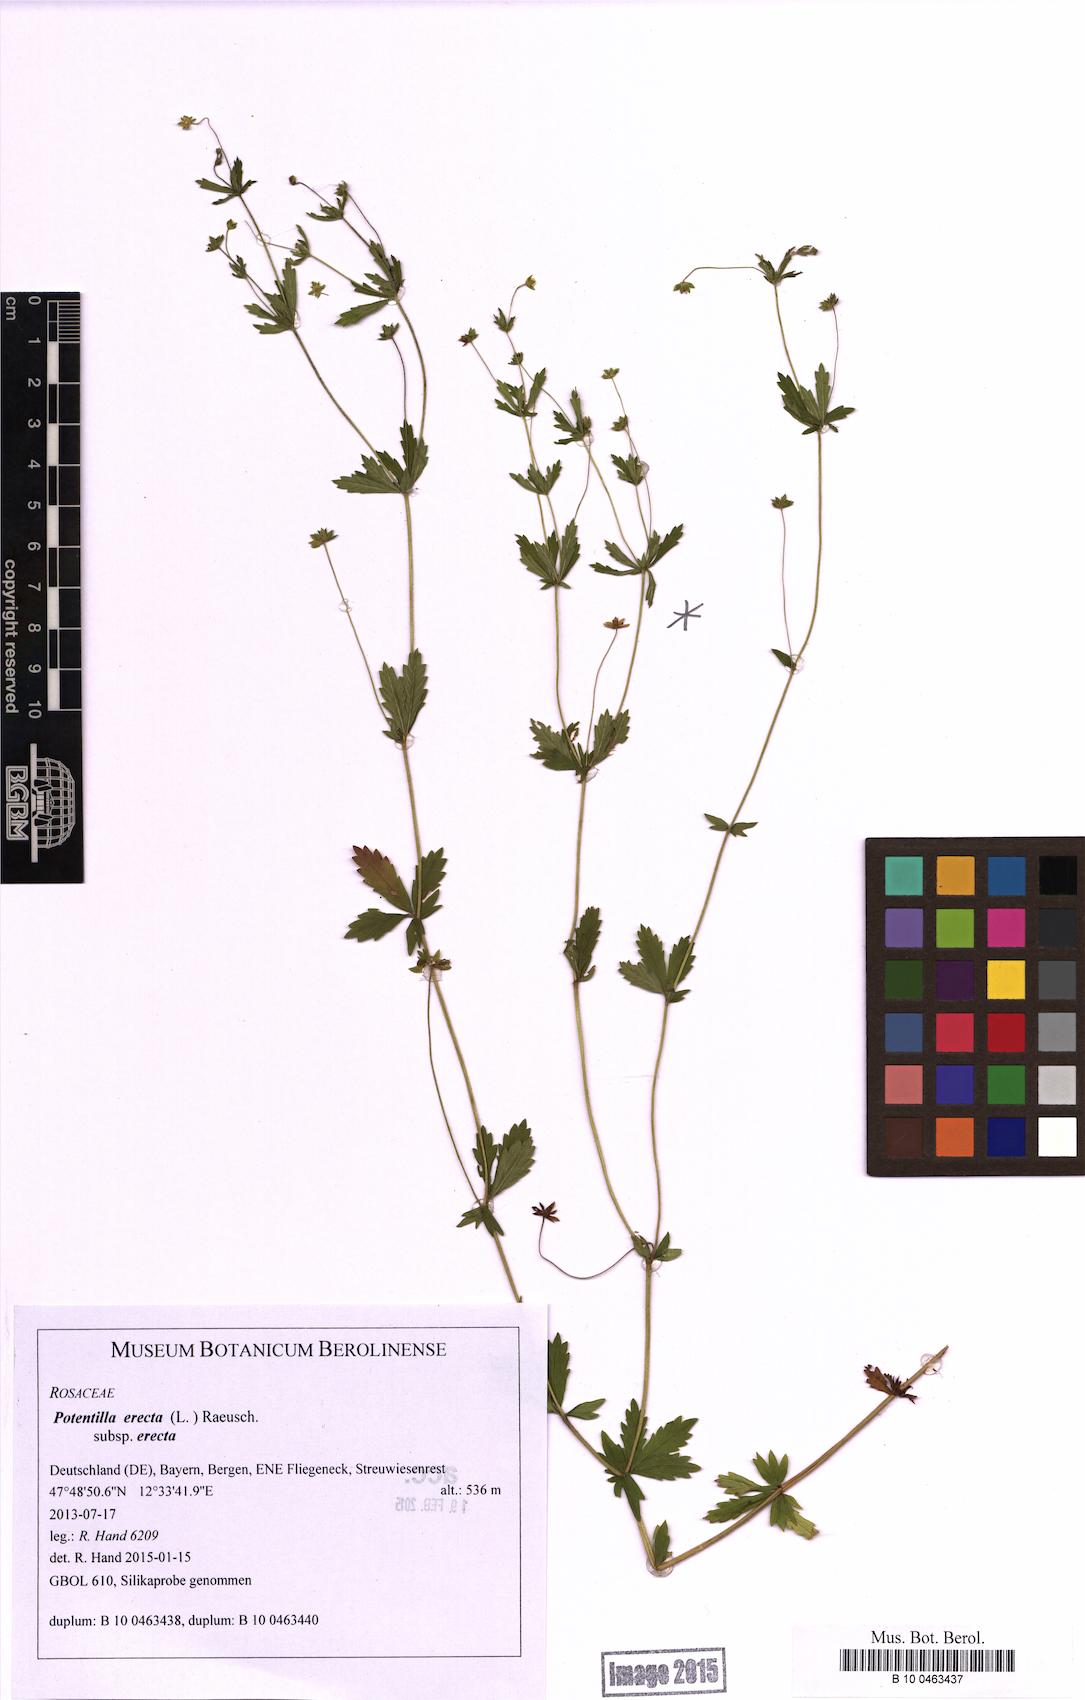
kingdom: Plantae
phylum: Tracheophyta
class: Magnoliopsida
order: Rosales
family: Rosaceae
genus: Potentilla
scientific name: Potentilla erecta
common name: Tormentil
